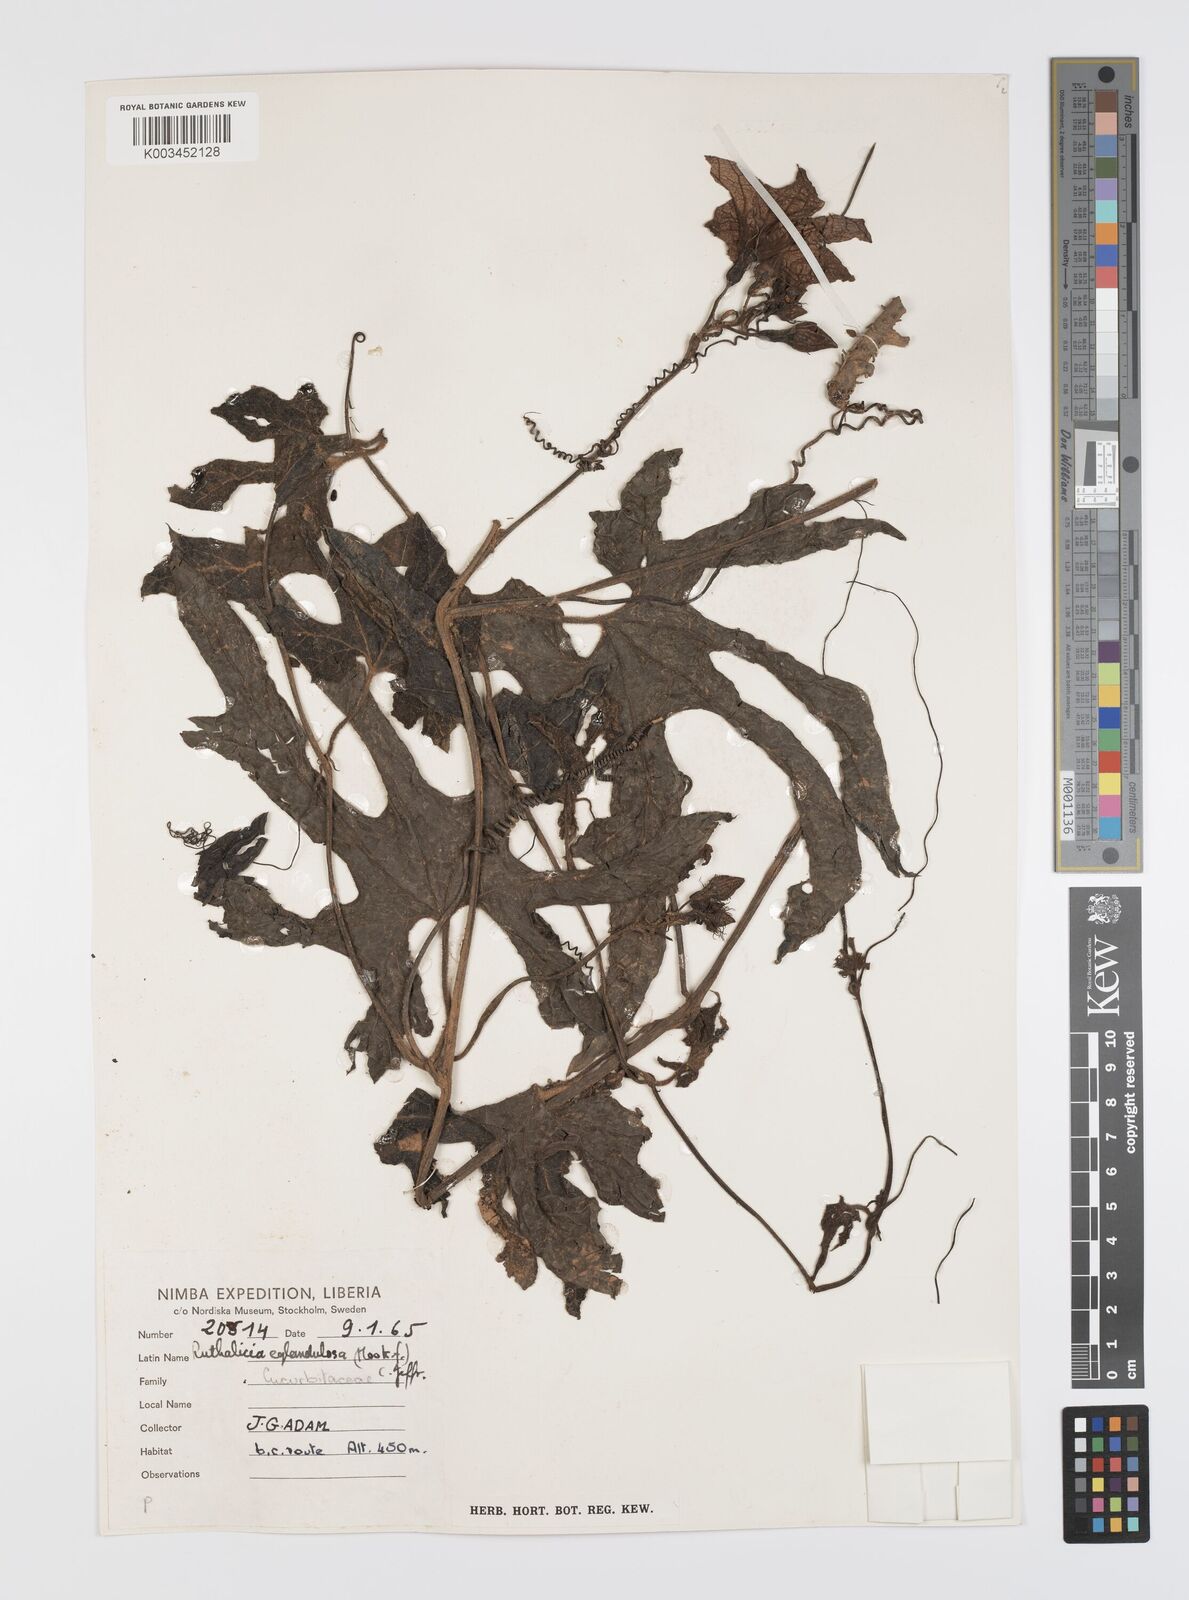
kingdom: Plantae
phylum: Tracheophyta
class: Magnoliopsida
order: Cucurbitales
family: Cucurbitaceae
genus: Ruthalicia
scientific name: Ruthalicia eglandulosa
